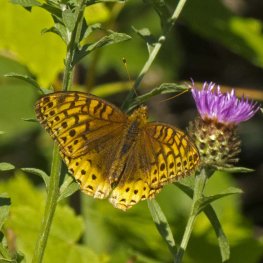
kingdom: Animalia
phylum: Arthropoda
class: Insecta
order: Lepidoptera
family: Nymphalidae
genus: Speyeria
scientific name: Speyeria cybele
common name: Great Spangled Fritillary
